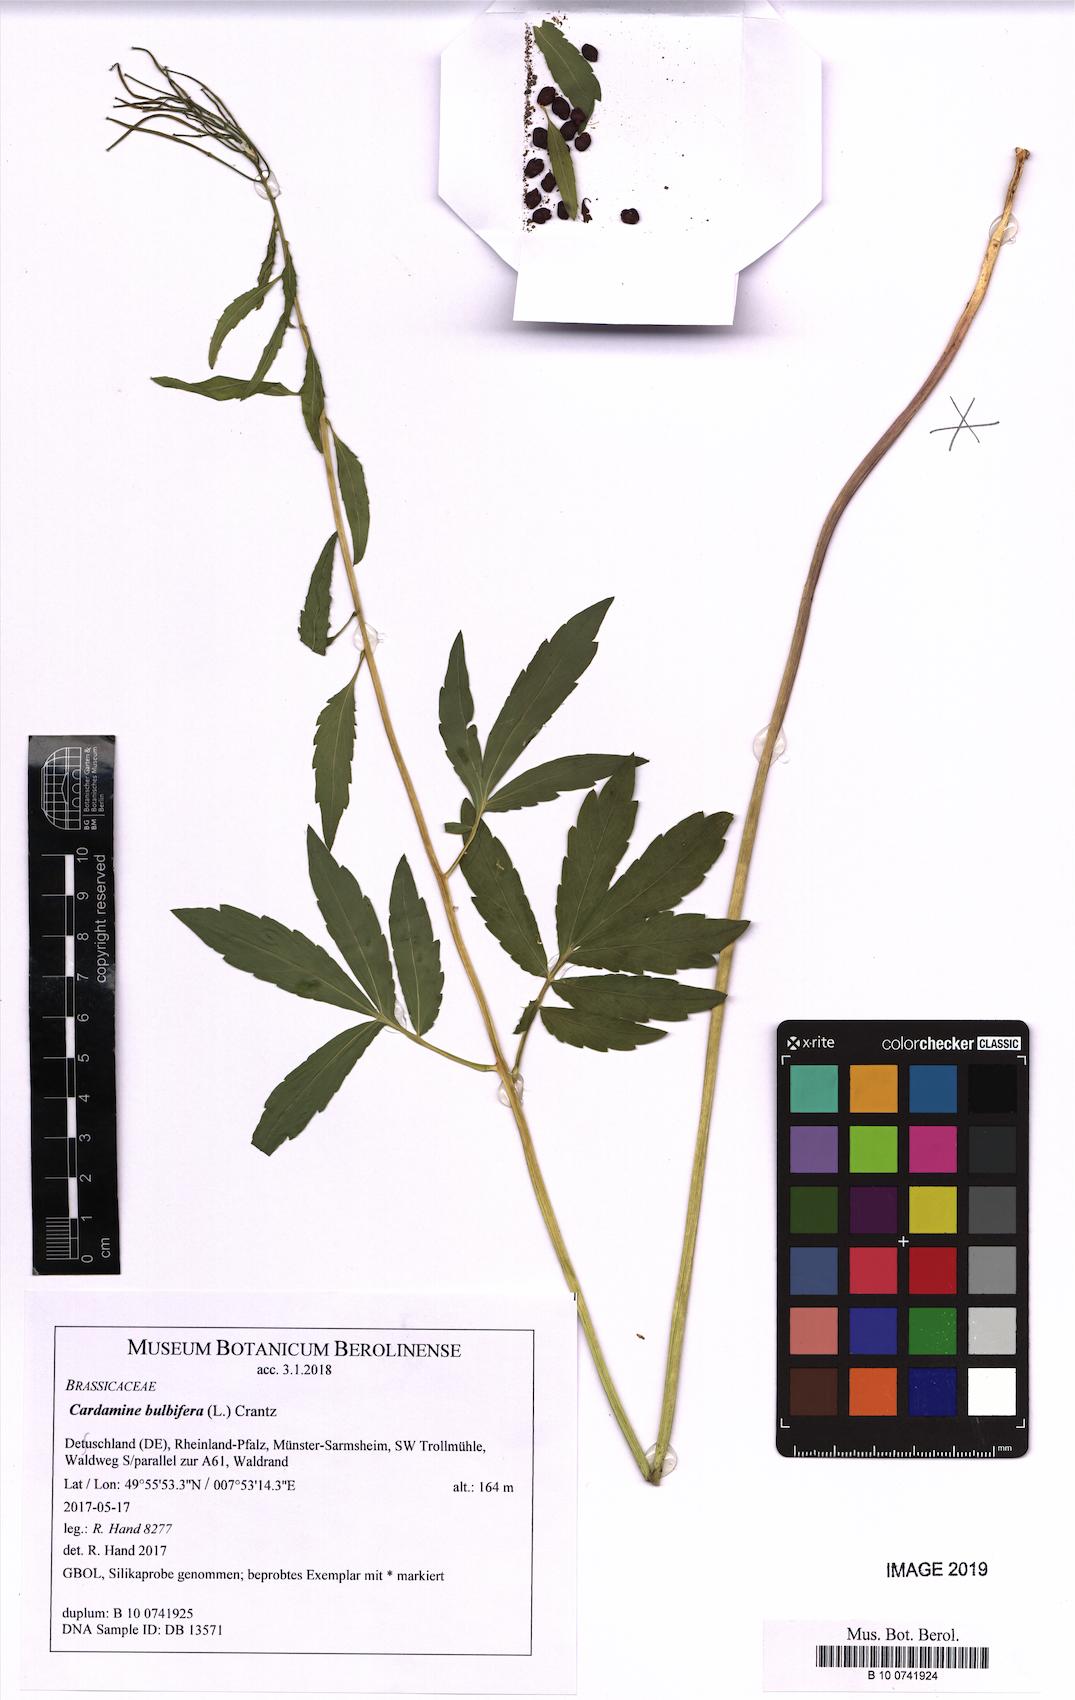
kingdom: Plantae
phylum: Tracheophyta
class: Magnoliopsida
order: Brassicales
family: Brassicaceae
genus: Cardamine
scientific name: Cardamine bulbifera
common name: Coralroot bittercress
